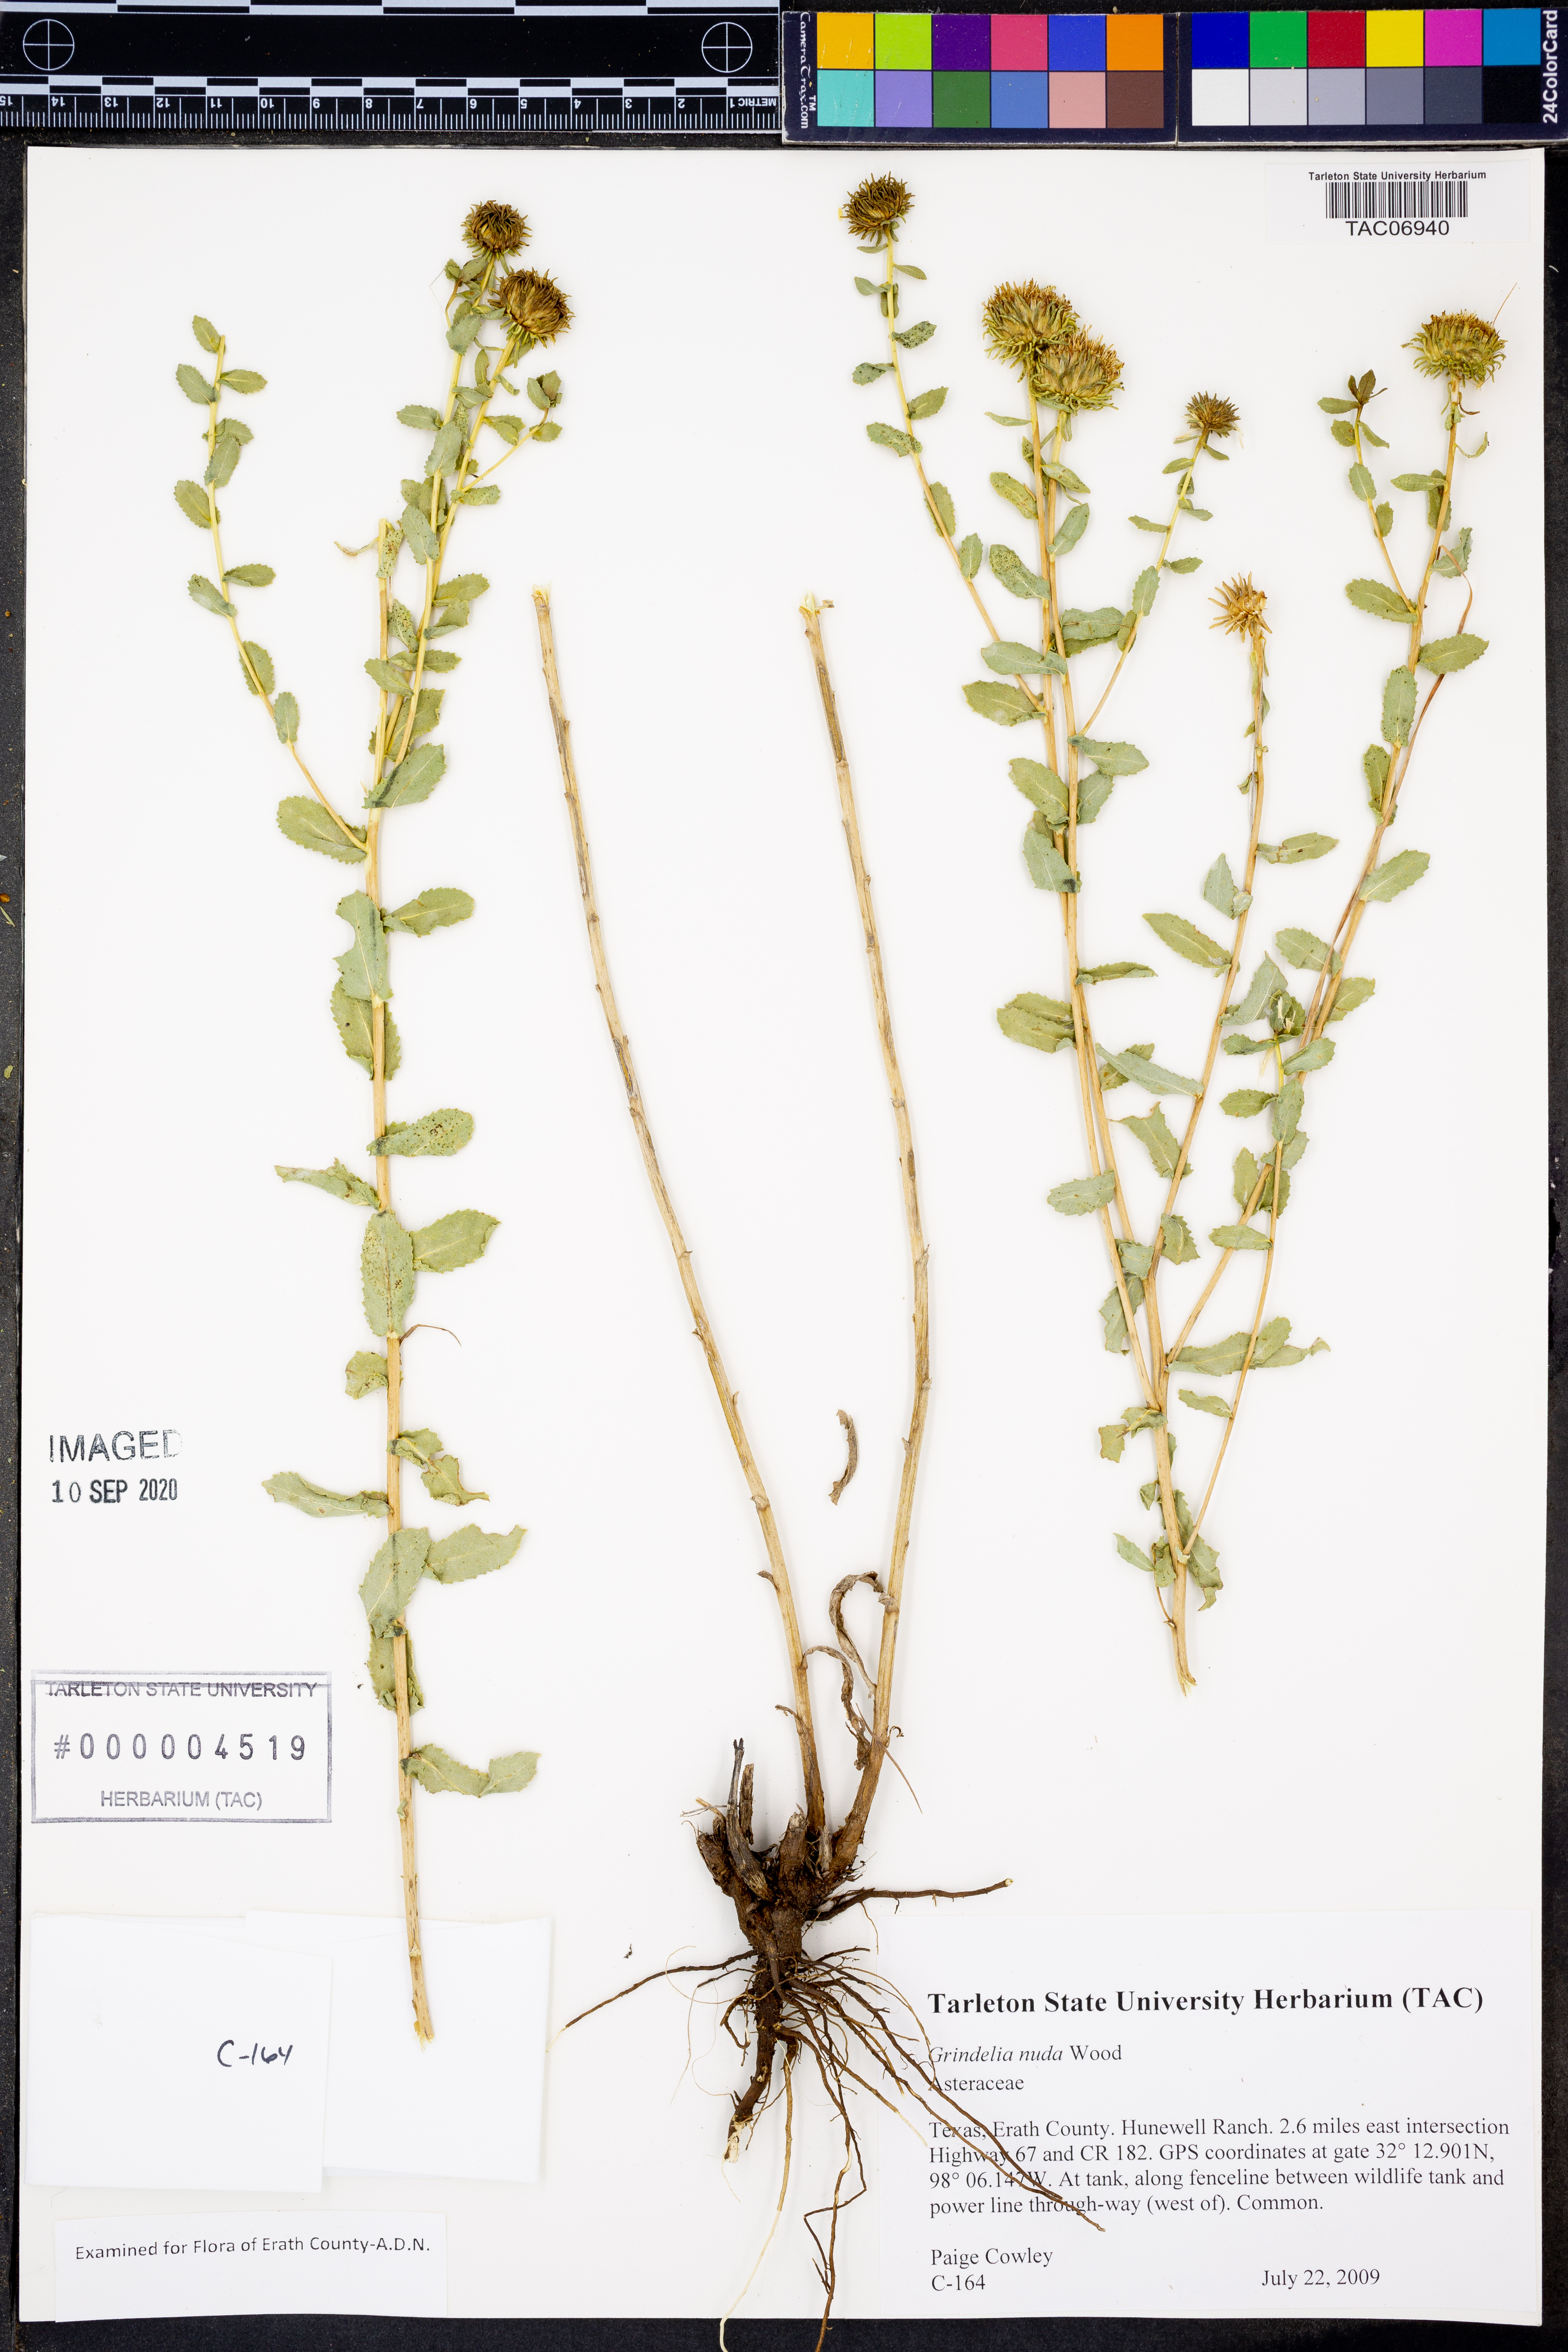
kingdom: Plantae
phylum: Tracheophyta
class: Magnoliopsida
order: Asterales
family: Asteraceae
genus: Grindelia
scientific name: Grindelia nuda
